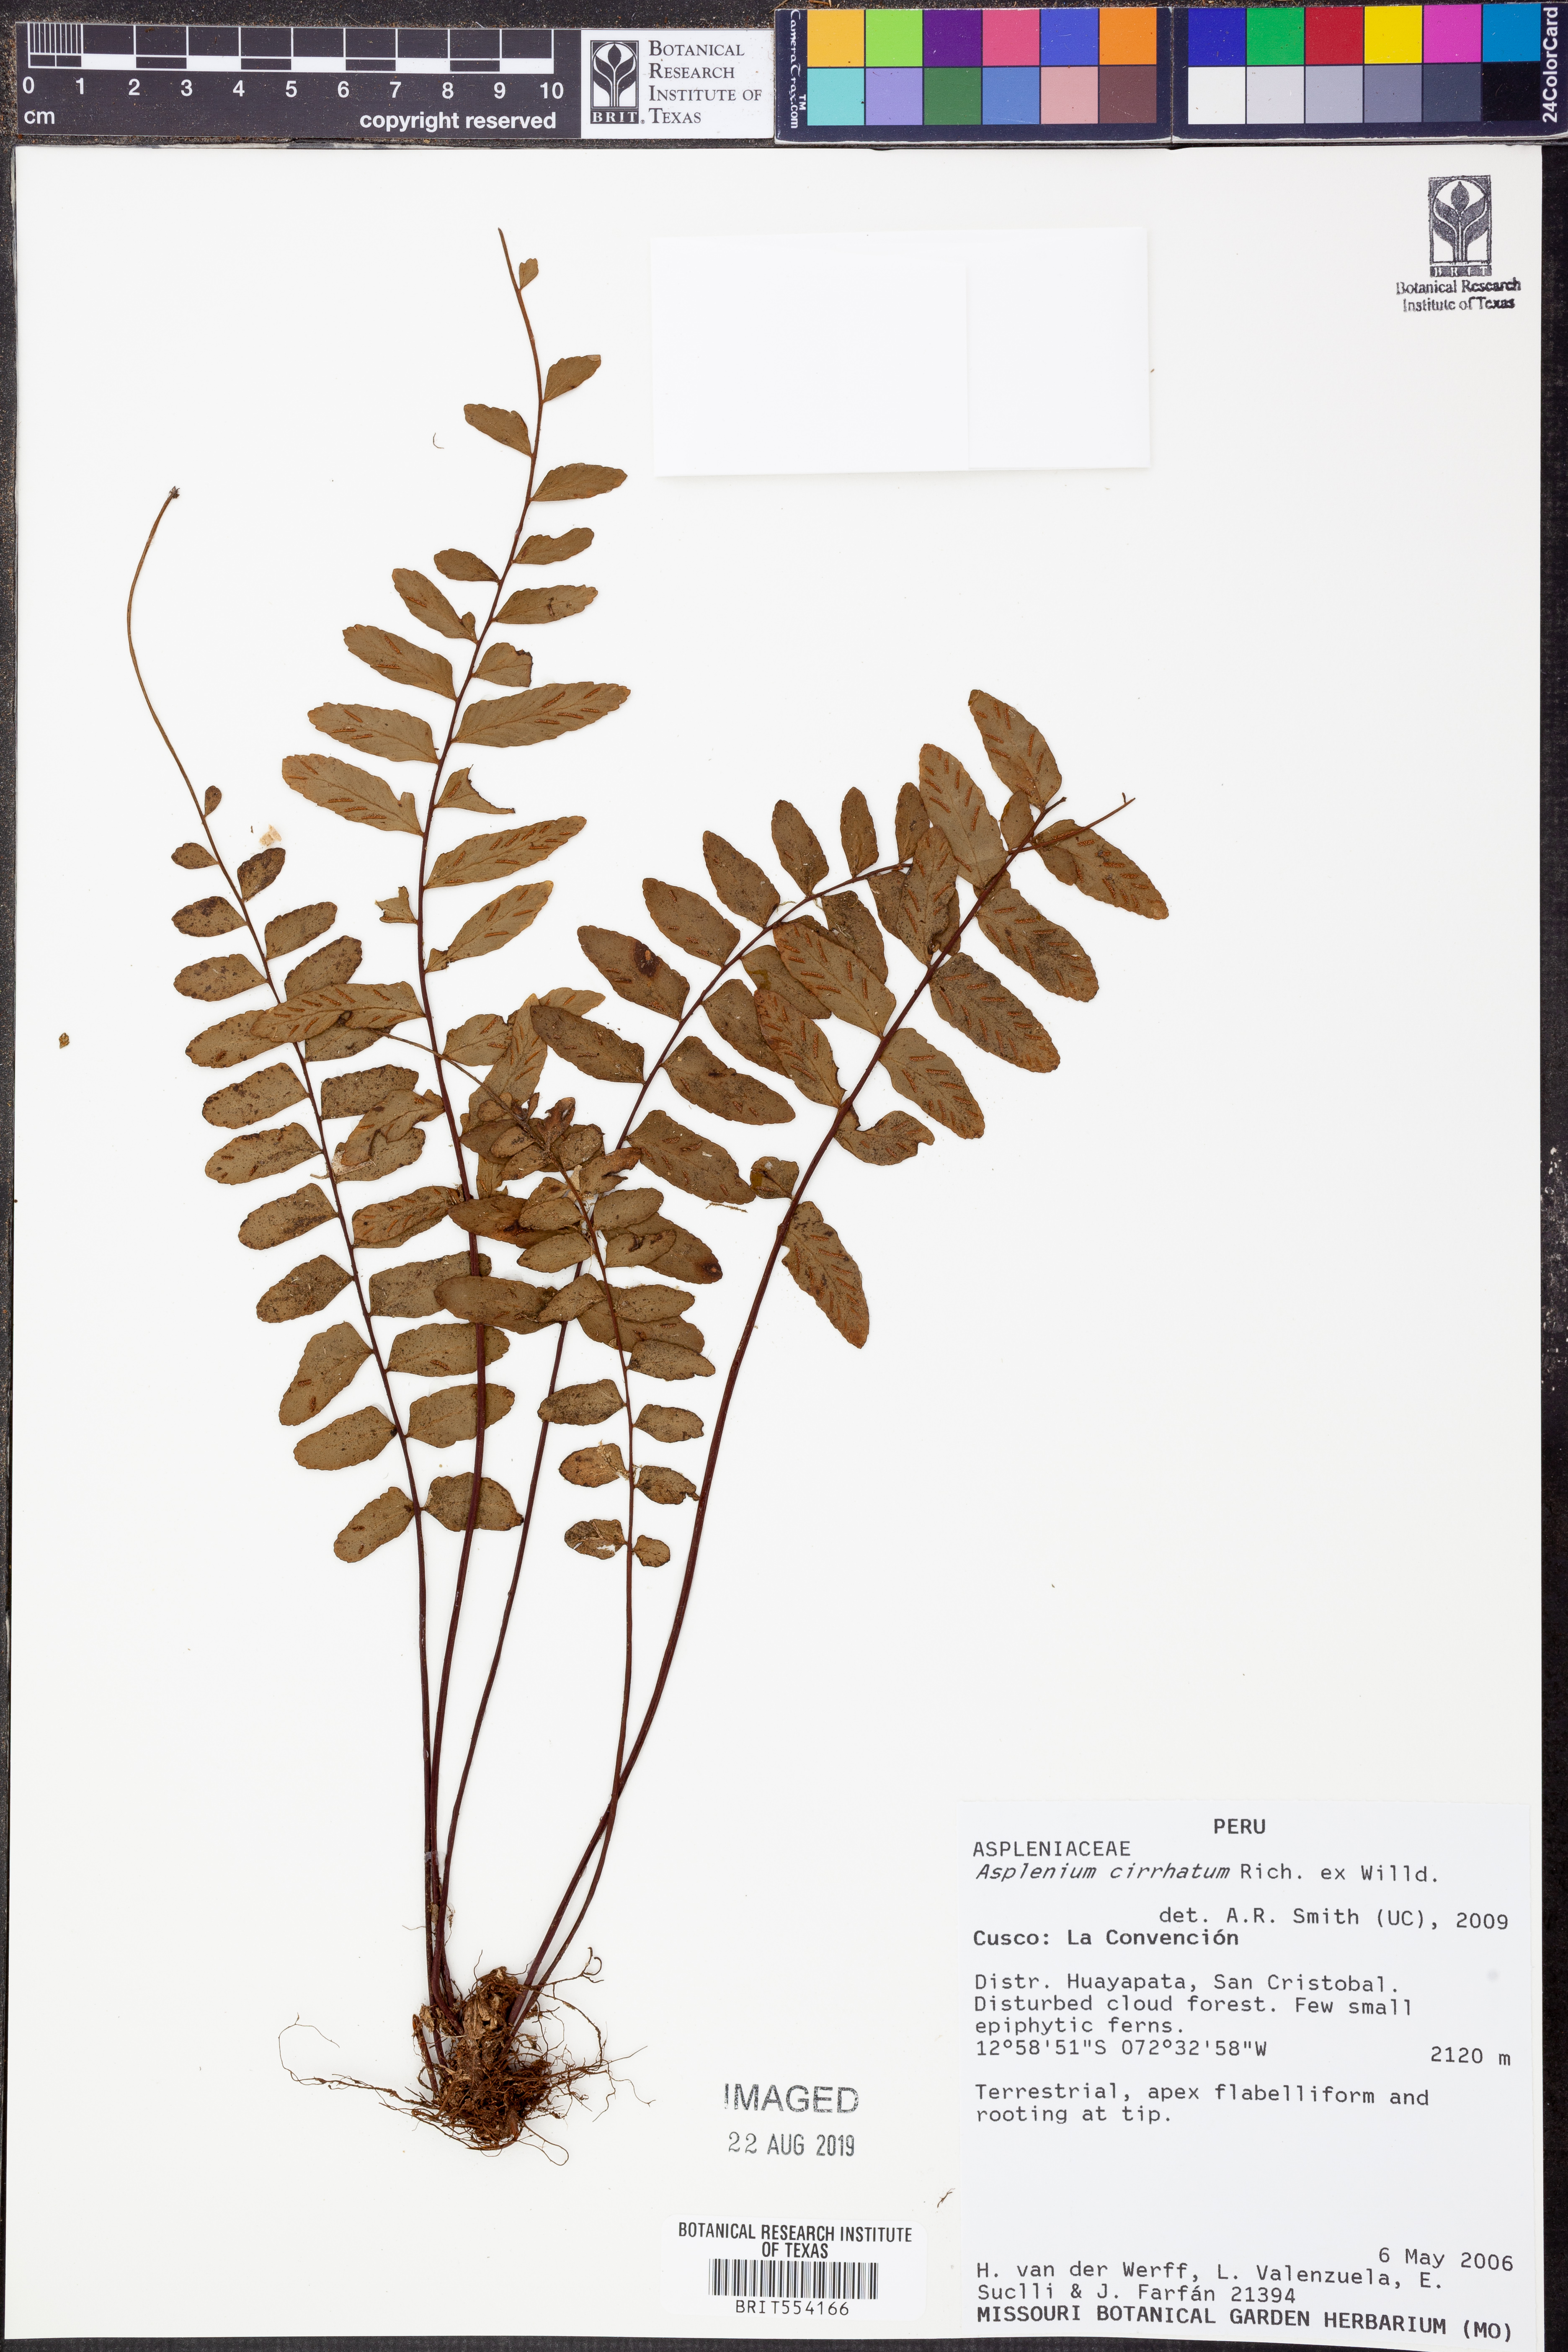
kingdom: Plantae
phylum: Tracheophyta
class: Polypodiopsida
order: Polypodiales
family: Aspleniaceae
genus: Asplenium
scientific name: Asplenium cirrhatum
